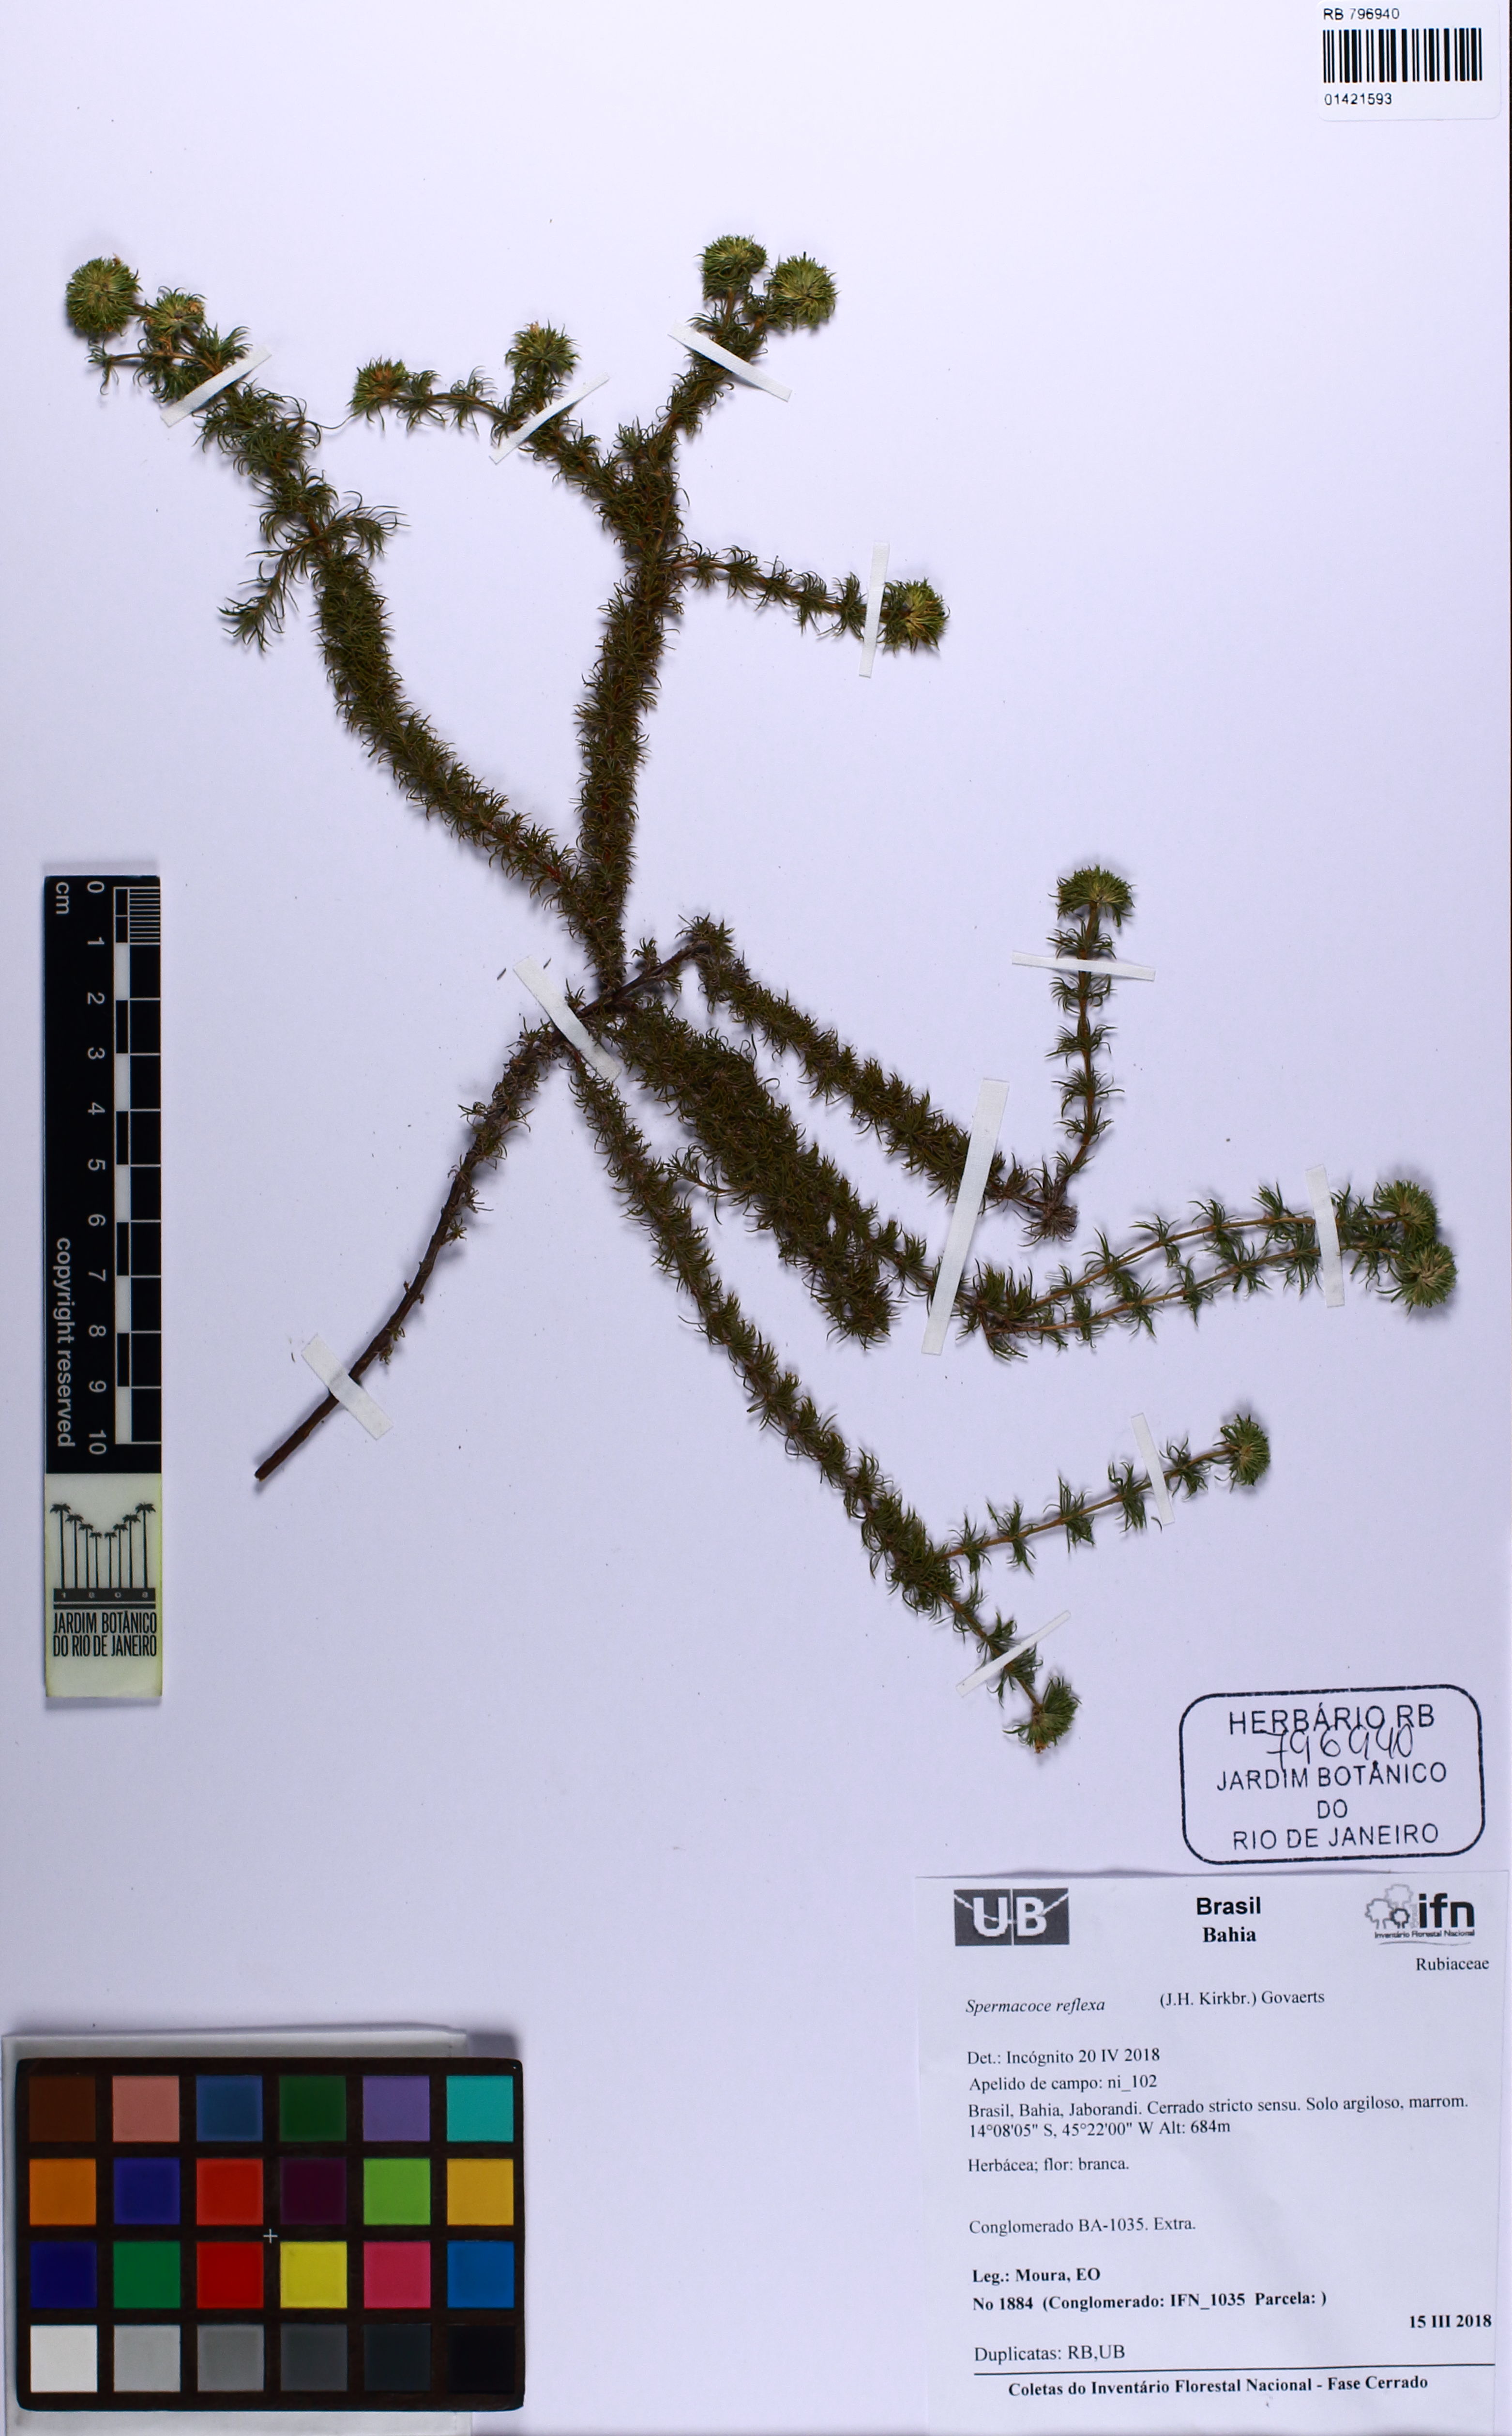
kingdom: Plantae
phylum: Tracheophyta
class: Magnoliopsida
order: Gentianales
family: Rubiaceae
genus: Spermacoce
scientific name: Spermacoce reflexa
